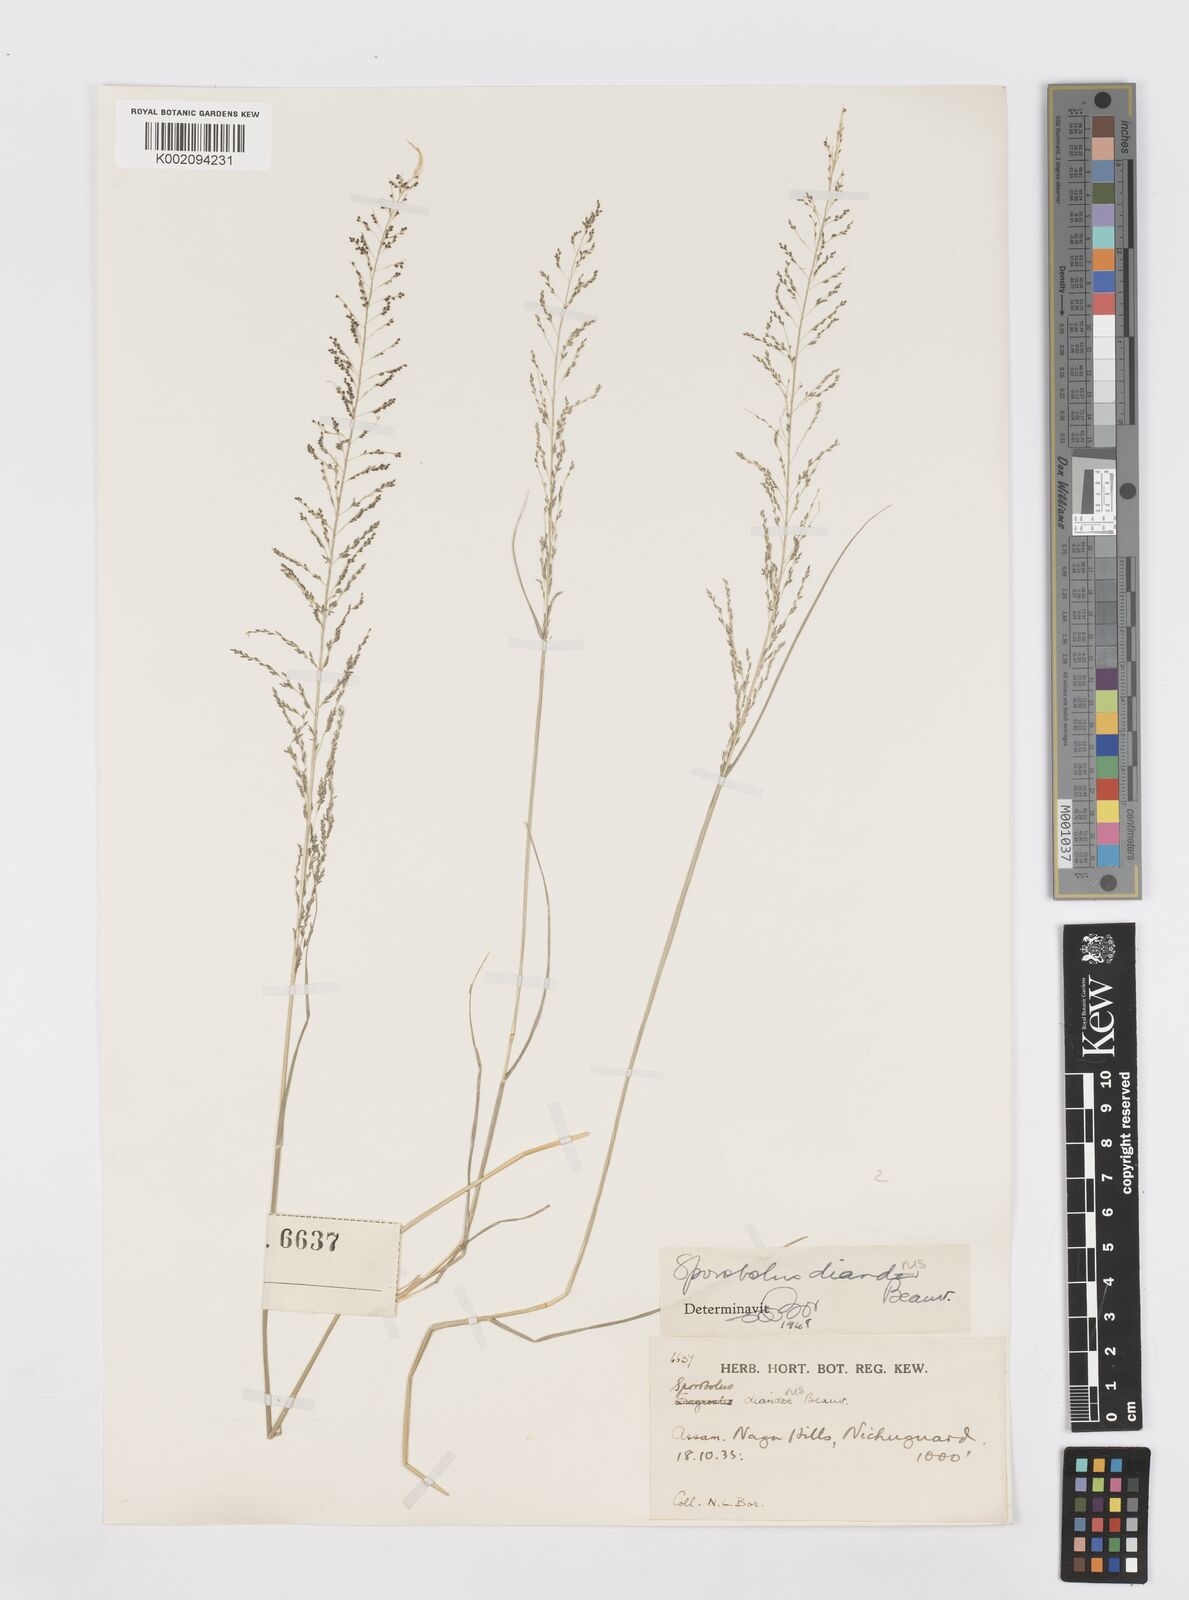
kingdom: Plantae
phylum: Tracheophyta
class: Liliopsida
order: Poales
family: Poaceae
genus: Sporobolus
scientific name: Sporobolus diandrus
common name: Tussock dropseed
